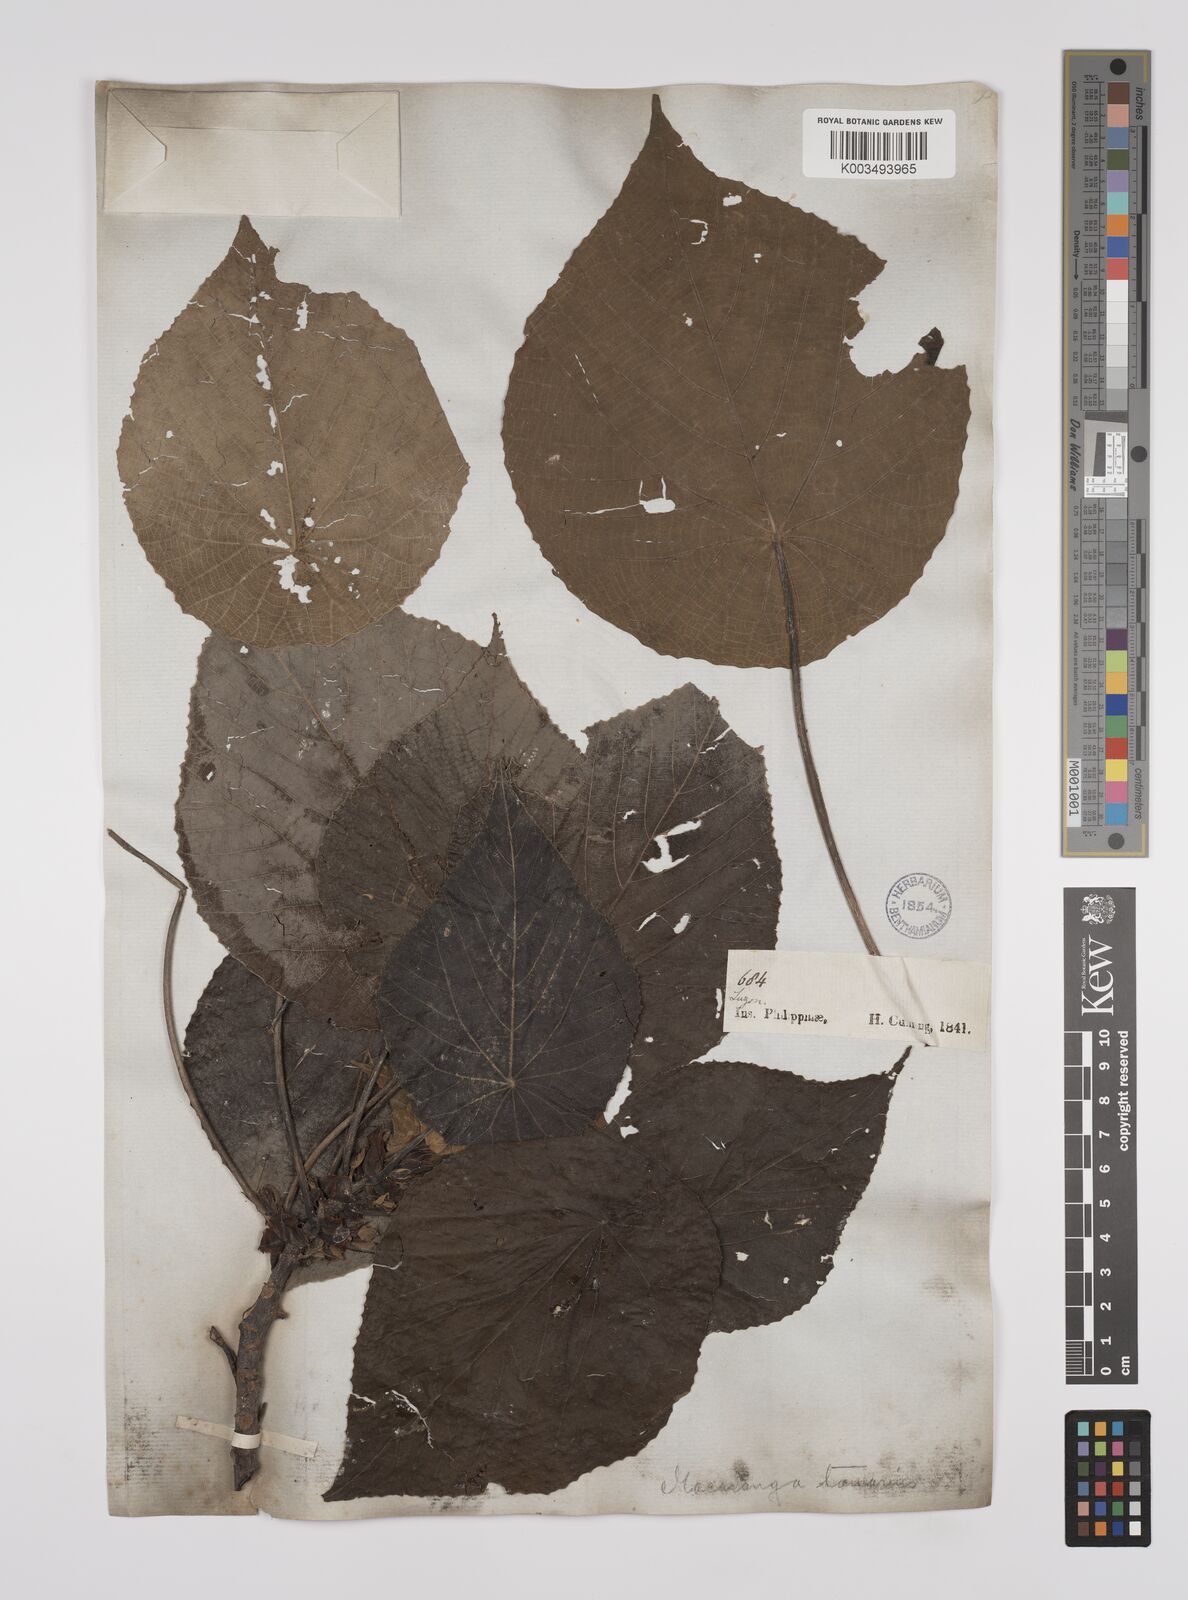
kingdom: Plantae
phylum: Tracheophyta
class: Magnoliopsida
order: Malpighiales
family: Euphorbiaceae
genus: Macaranga
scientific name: Macaranga tanarius
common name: Parasol leaf tree
